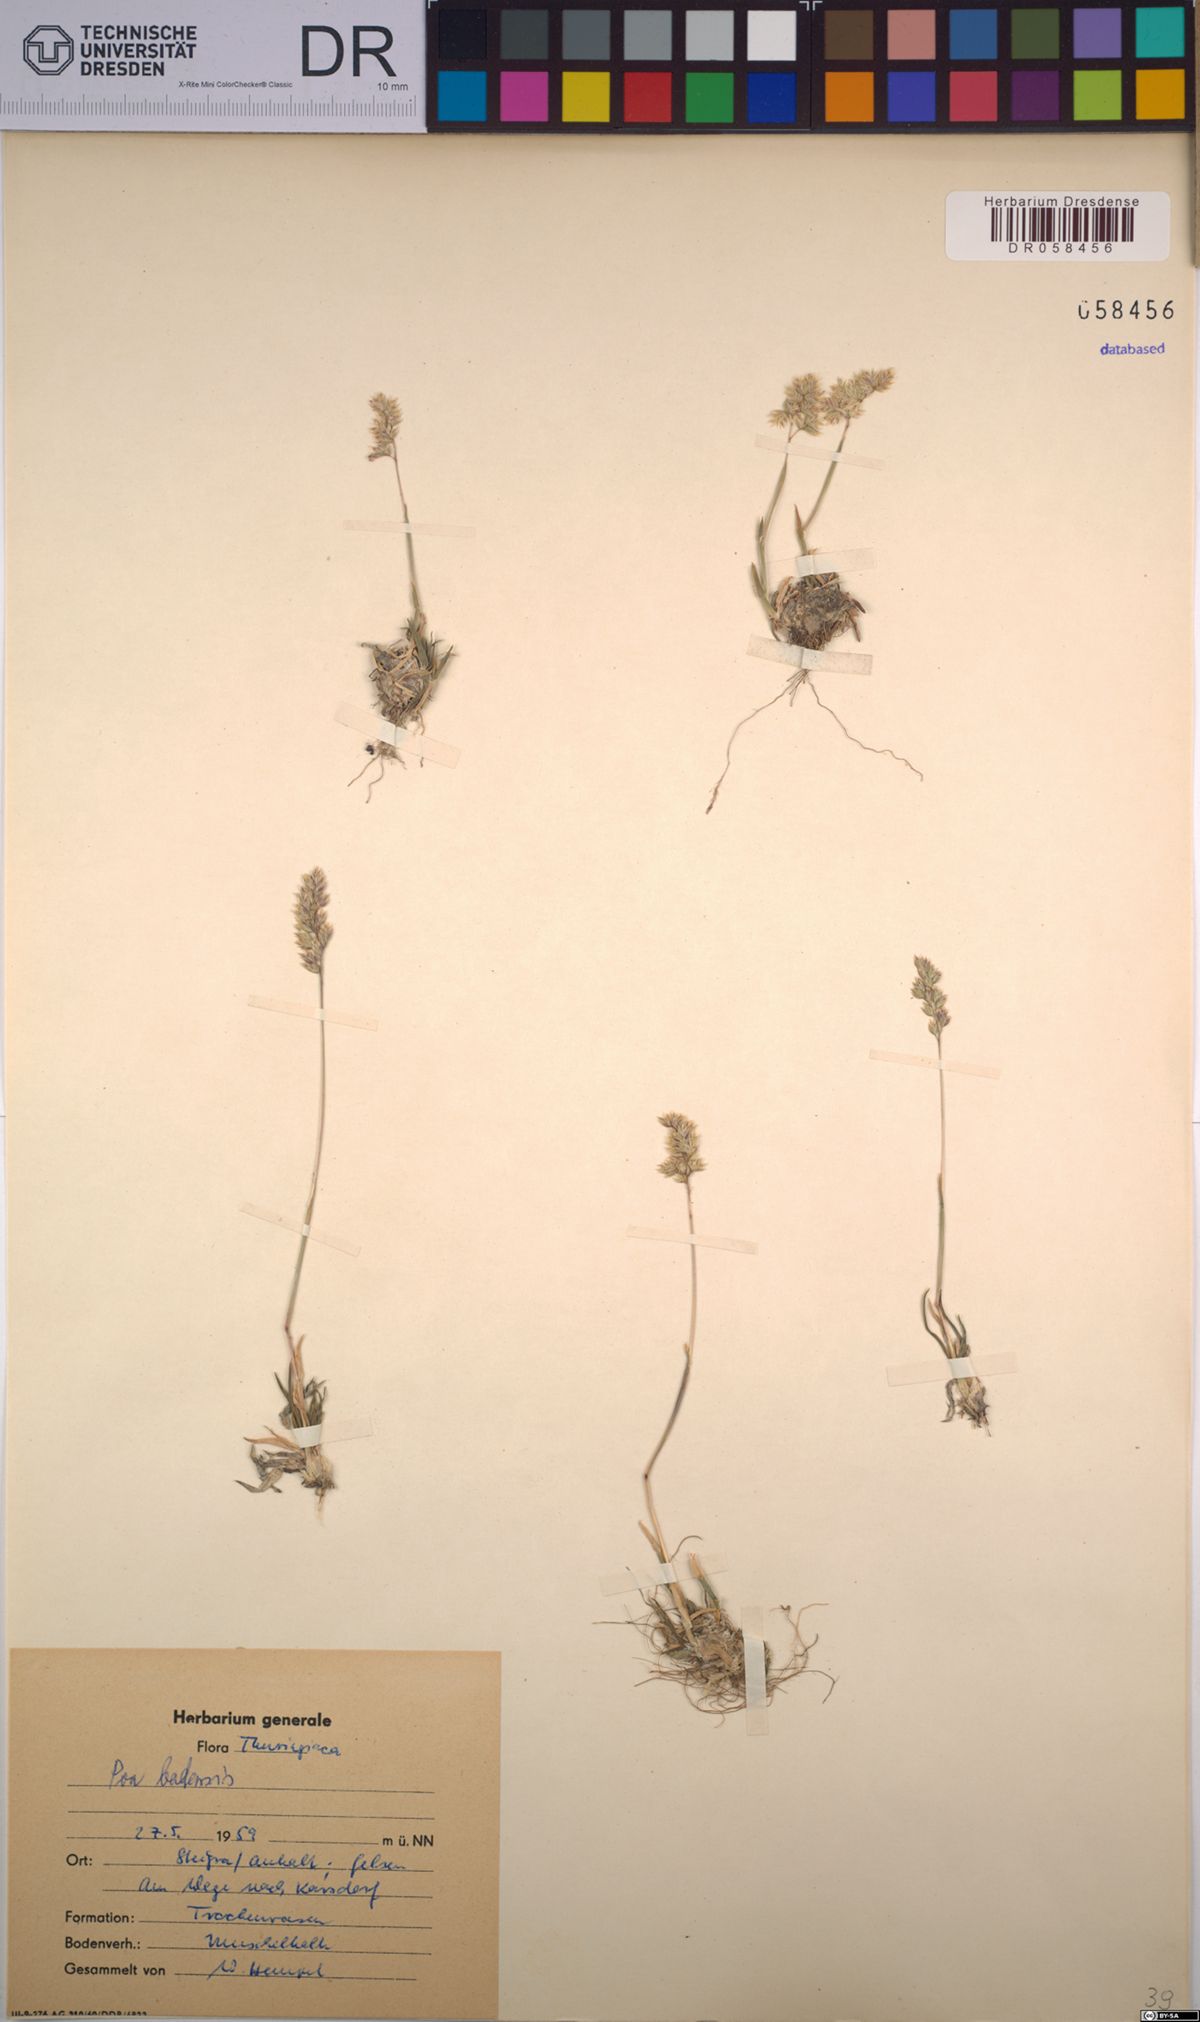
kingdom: Plantae
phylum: Tracheophyta
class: Liliopsida
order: Poales
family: Poaceae
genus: Poa
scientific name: Poa badensis
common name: Baden's bluegrass
